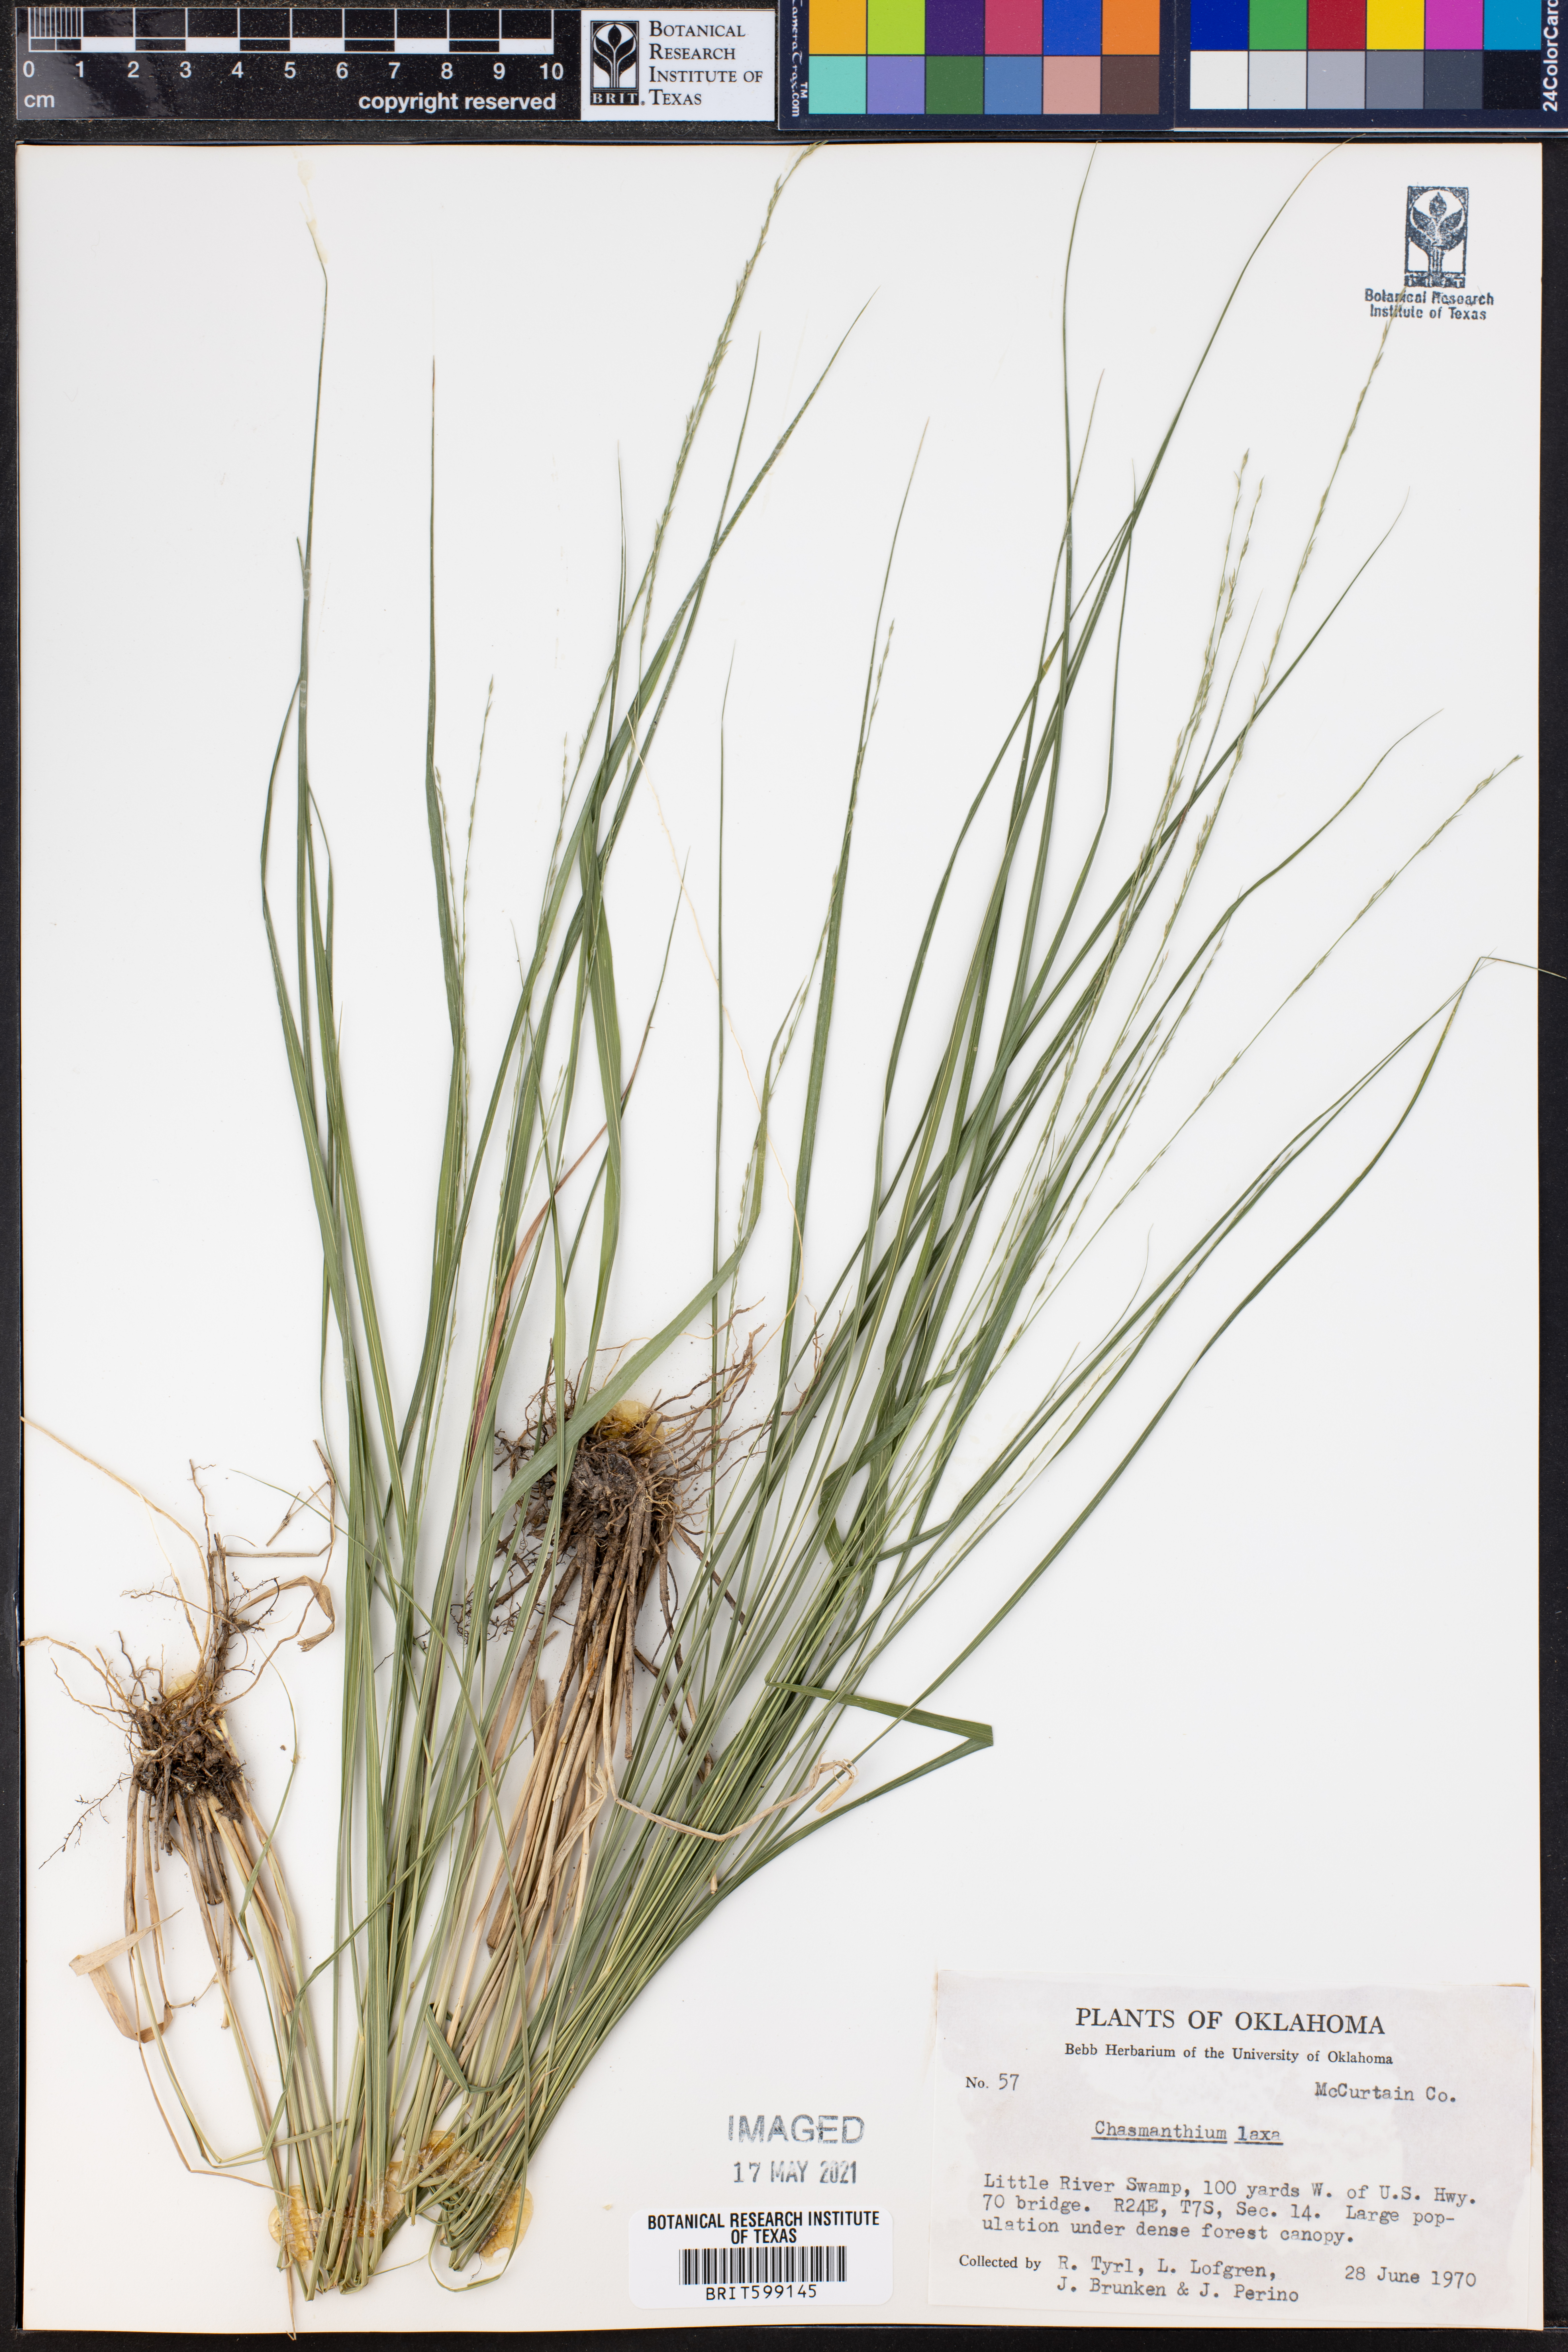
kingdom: Plantae
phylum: Tracheophyta
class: Liliopsida
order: Poales
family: Poaceae
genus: Chasmanthium
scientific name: Chasmanthium laxum
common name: Slender chasmanthium
